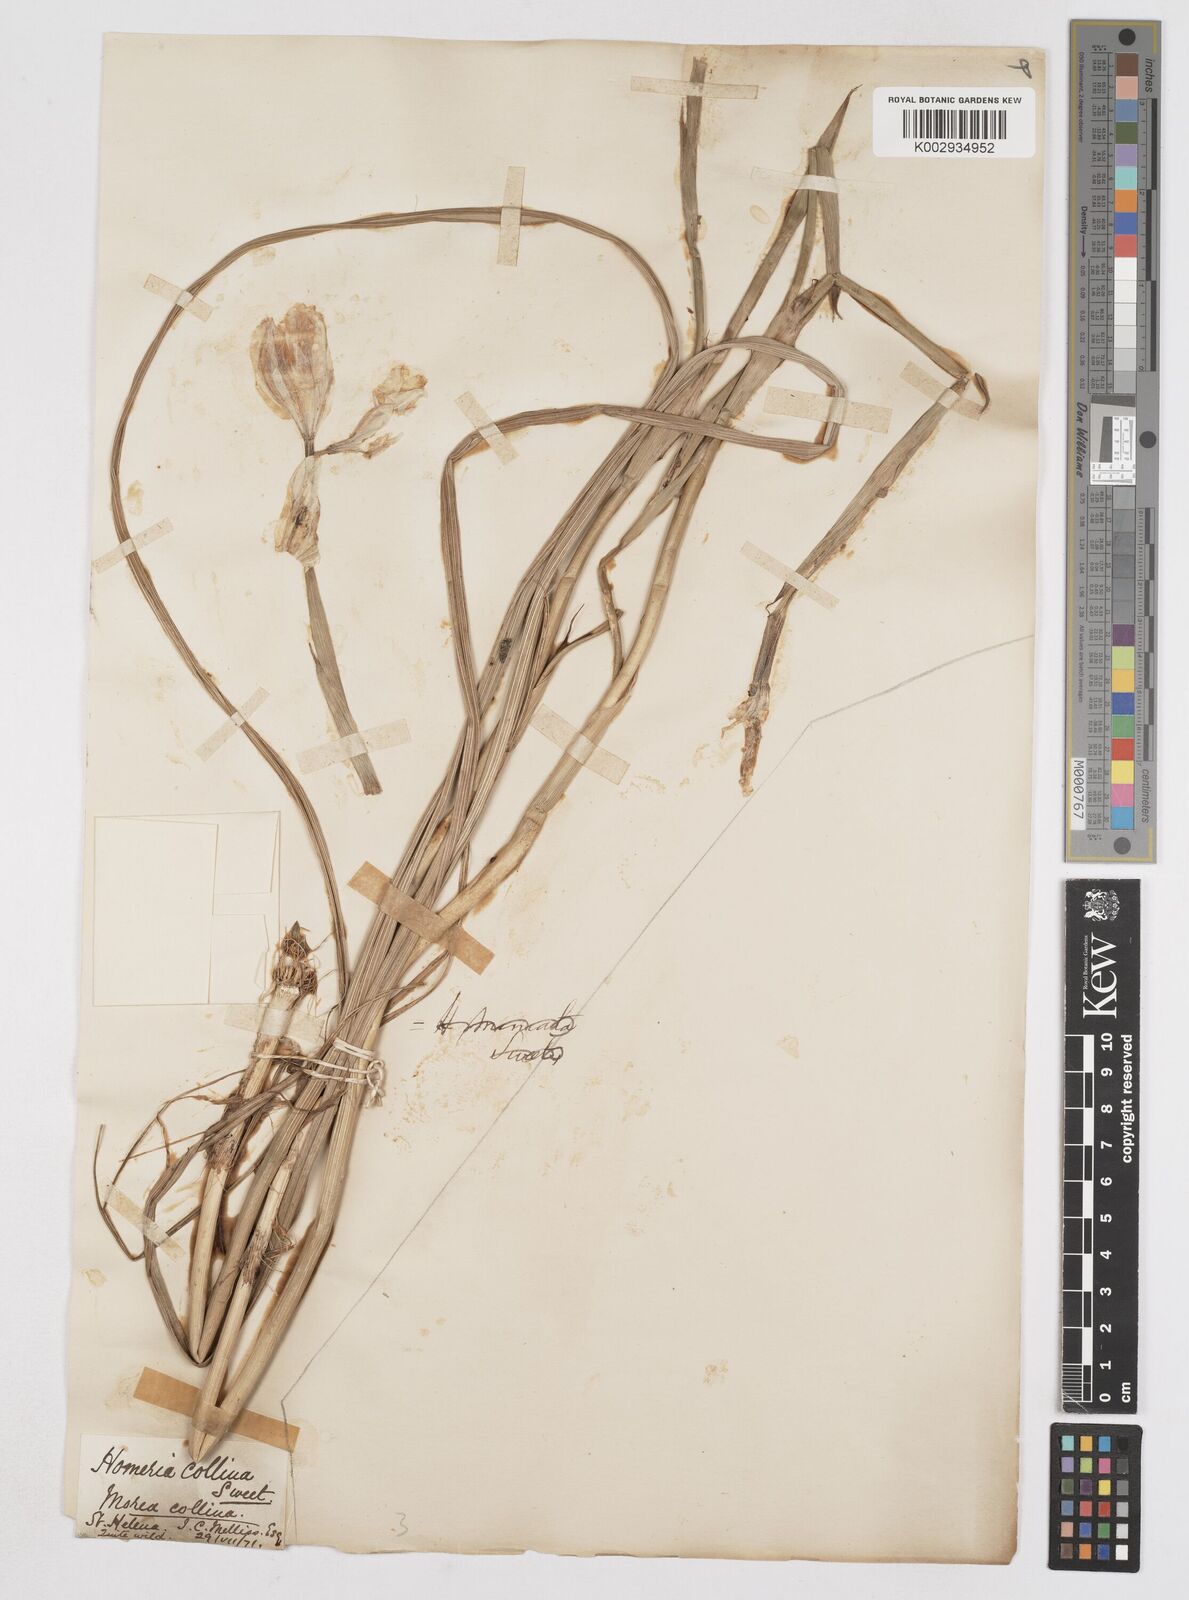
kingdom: Plantae
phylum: Tracheophyta
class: Liliopsida
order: Asparagales
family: Iridaceae
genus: Moraea
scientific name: Moraea collina
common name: Cape-tulip
